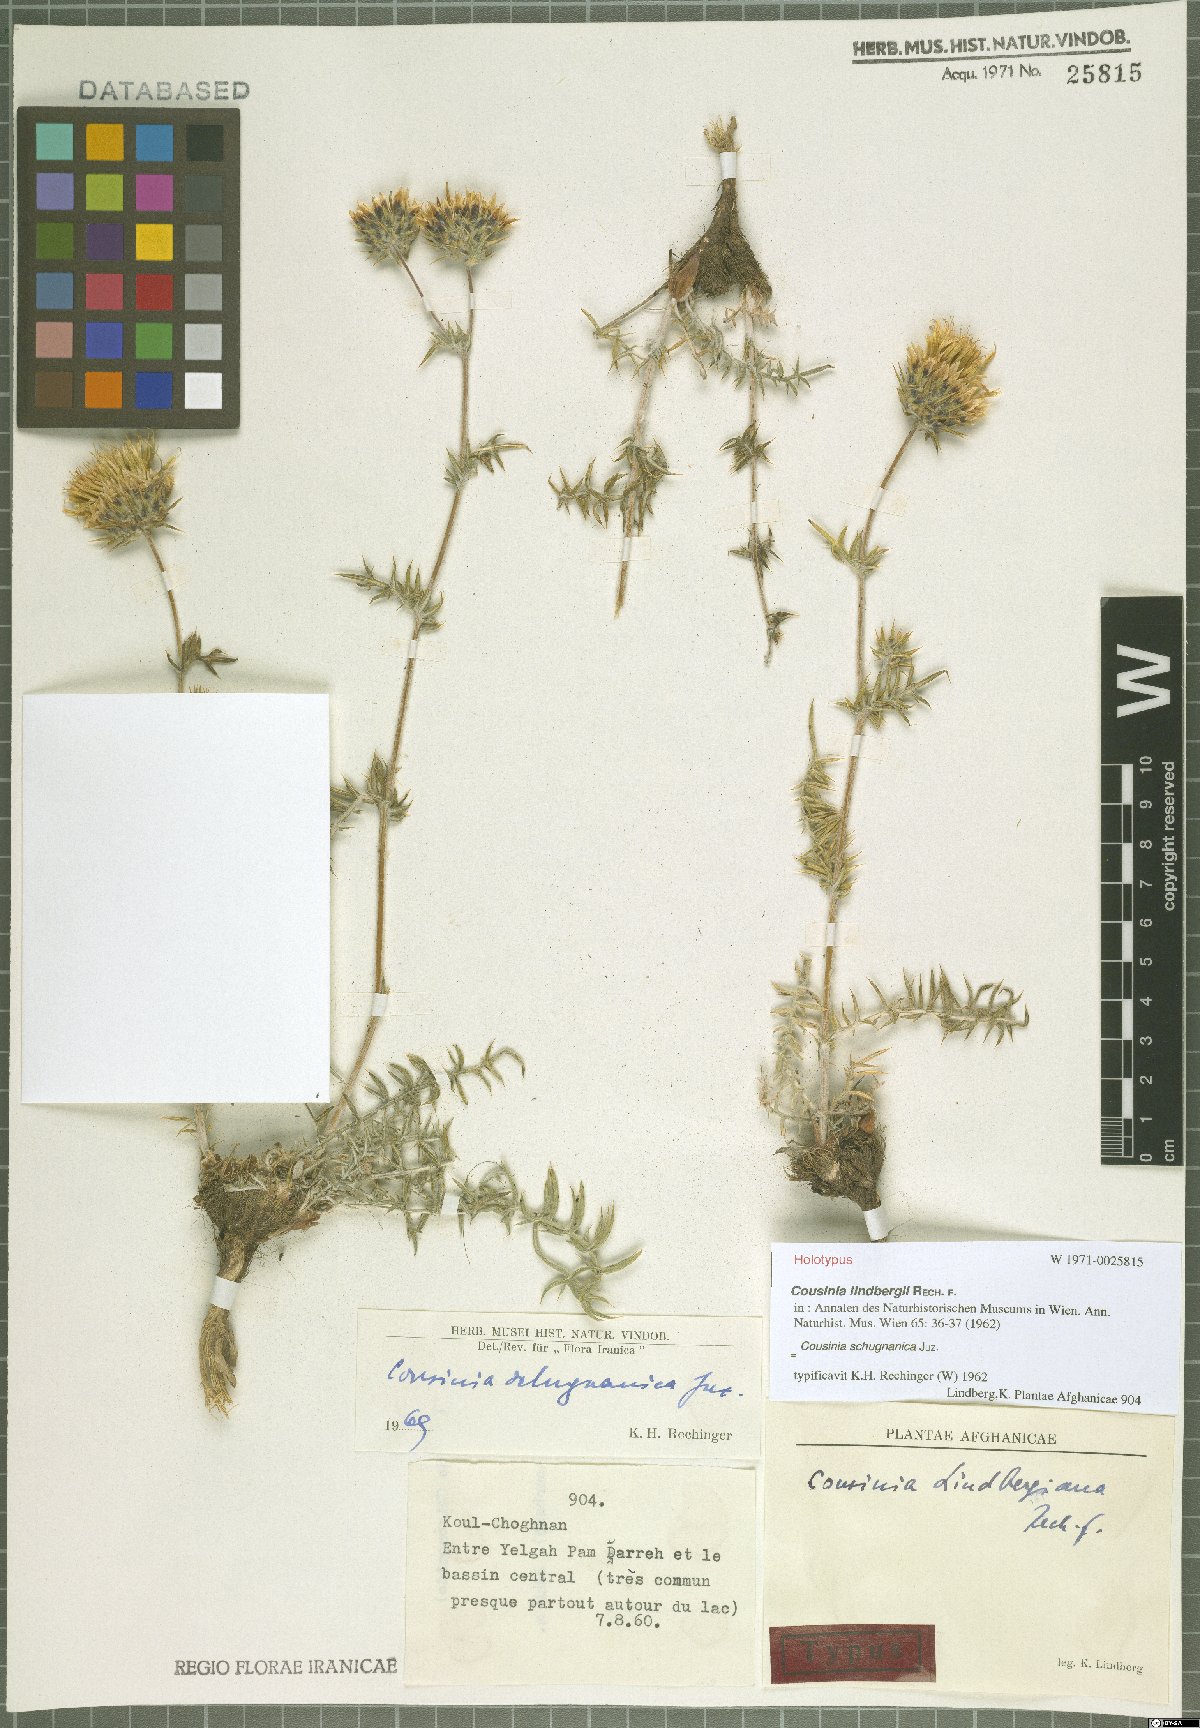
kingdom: Plantae
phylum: Tracheophyta
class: Magnoliopsida
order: Asterales
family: Asteraceae
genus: Cousinia
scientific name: Cousinia schugnanica
